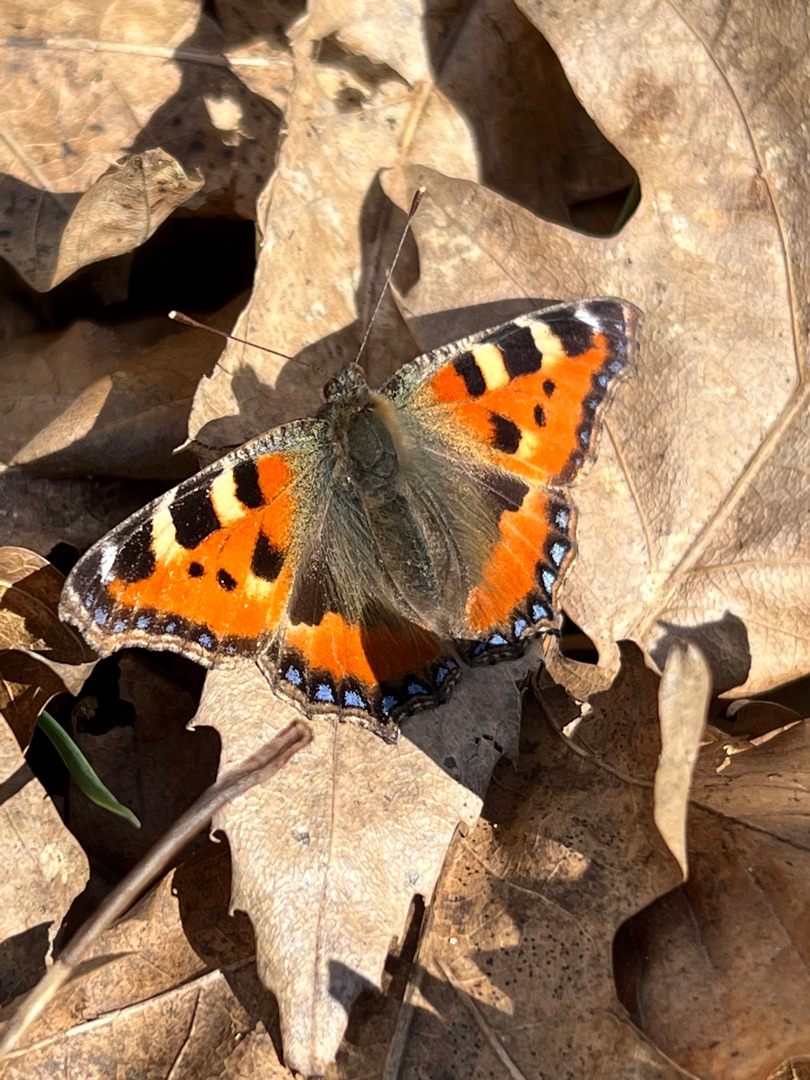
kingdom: Animalia
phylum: Arthropoda
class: Insecta
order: Lepidoptera
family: Nymphalidae
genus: Aglais
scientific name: Aglais urticae
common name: Nældens takvinge
